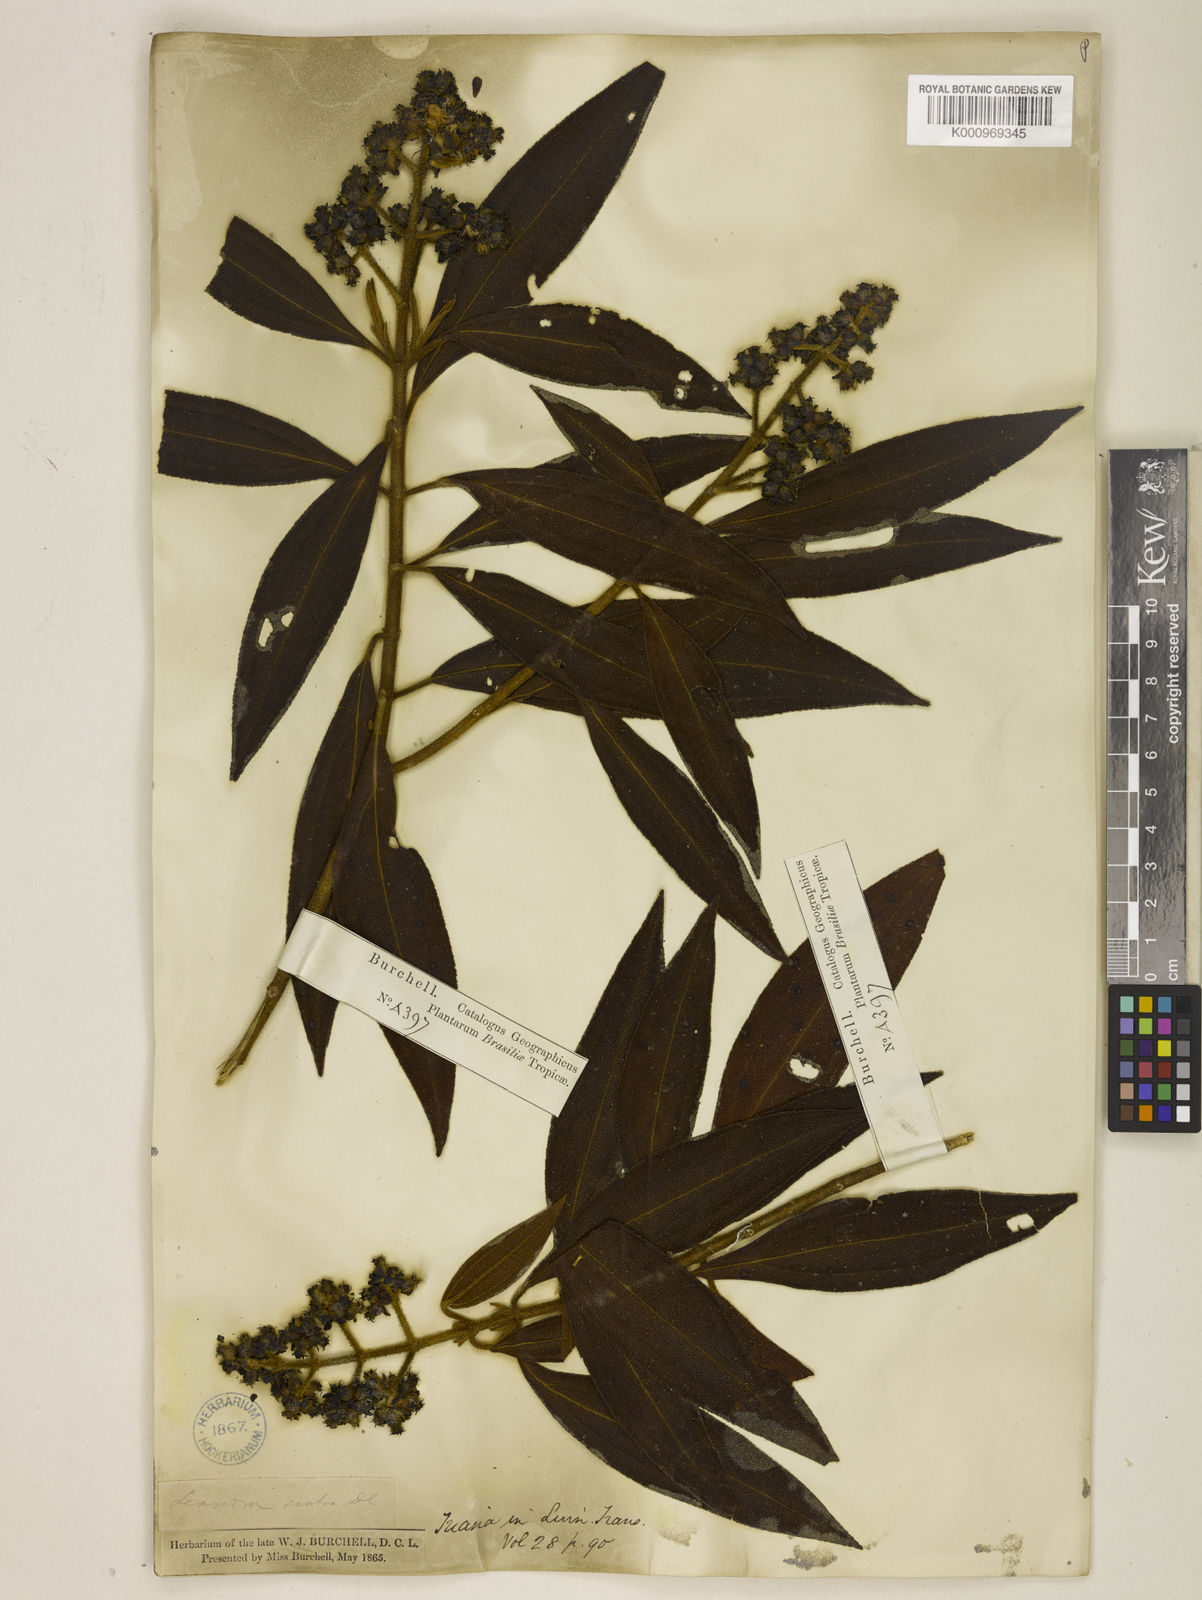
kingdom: Plantae
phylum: Tracheophyta
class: Magnoliopsida
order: Myrtales
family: Melastomataceae
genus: Miconia
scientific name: Miconia melastomoides
